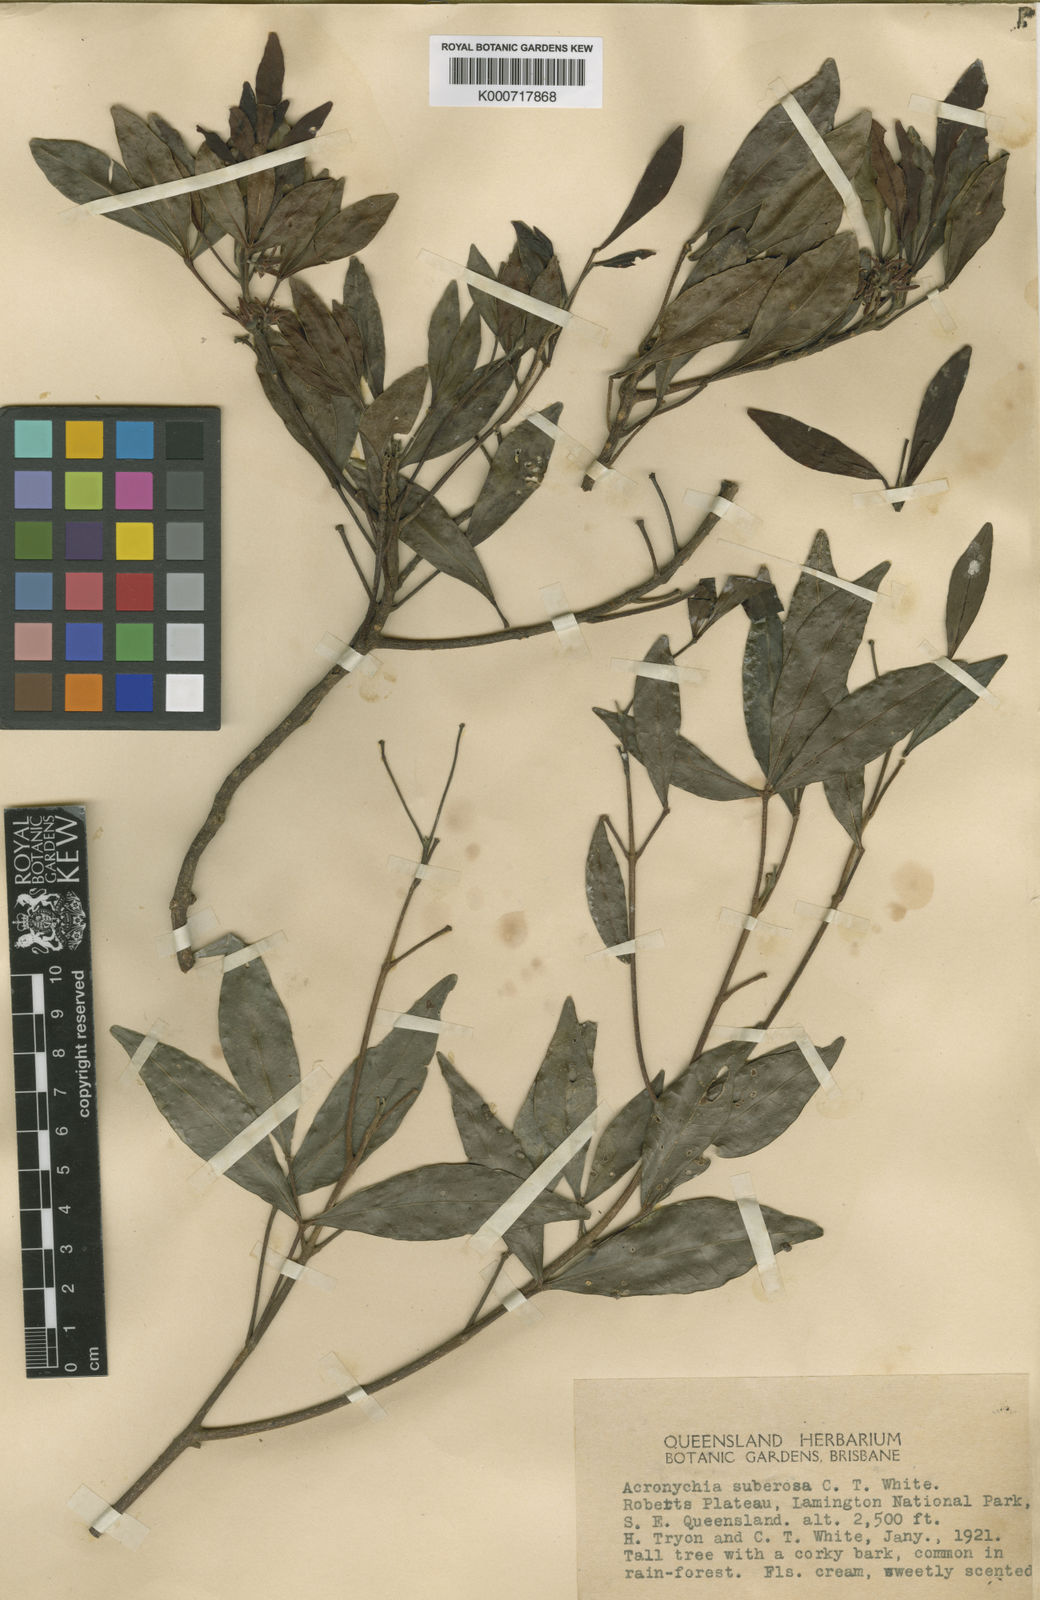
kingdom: Plantae
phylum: Tracheophyta
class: Magnoliopsida
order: Sapindales
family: Rutaceae
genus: Acronychia
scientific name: Acronychia suberosa
